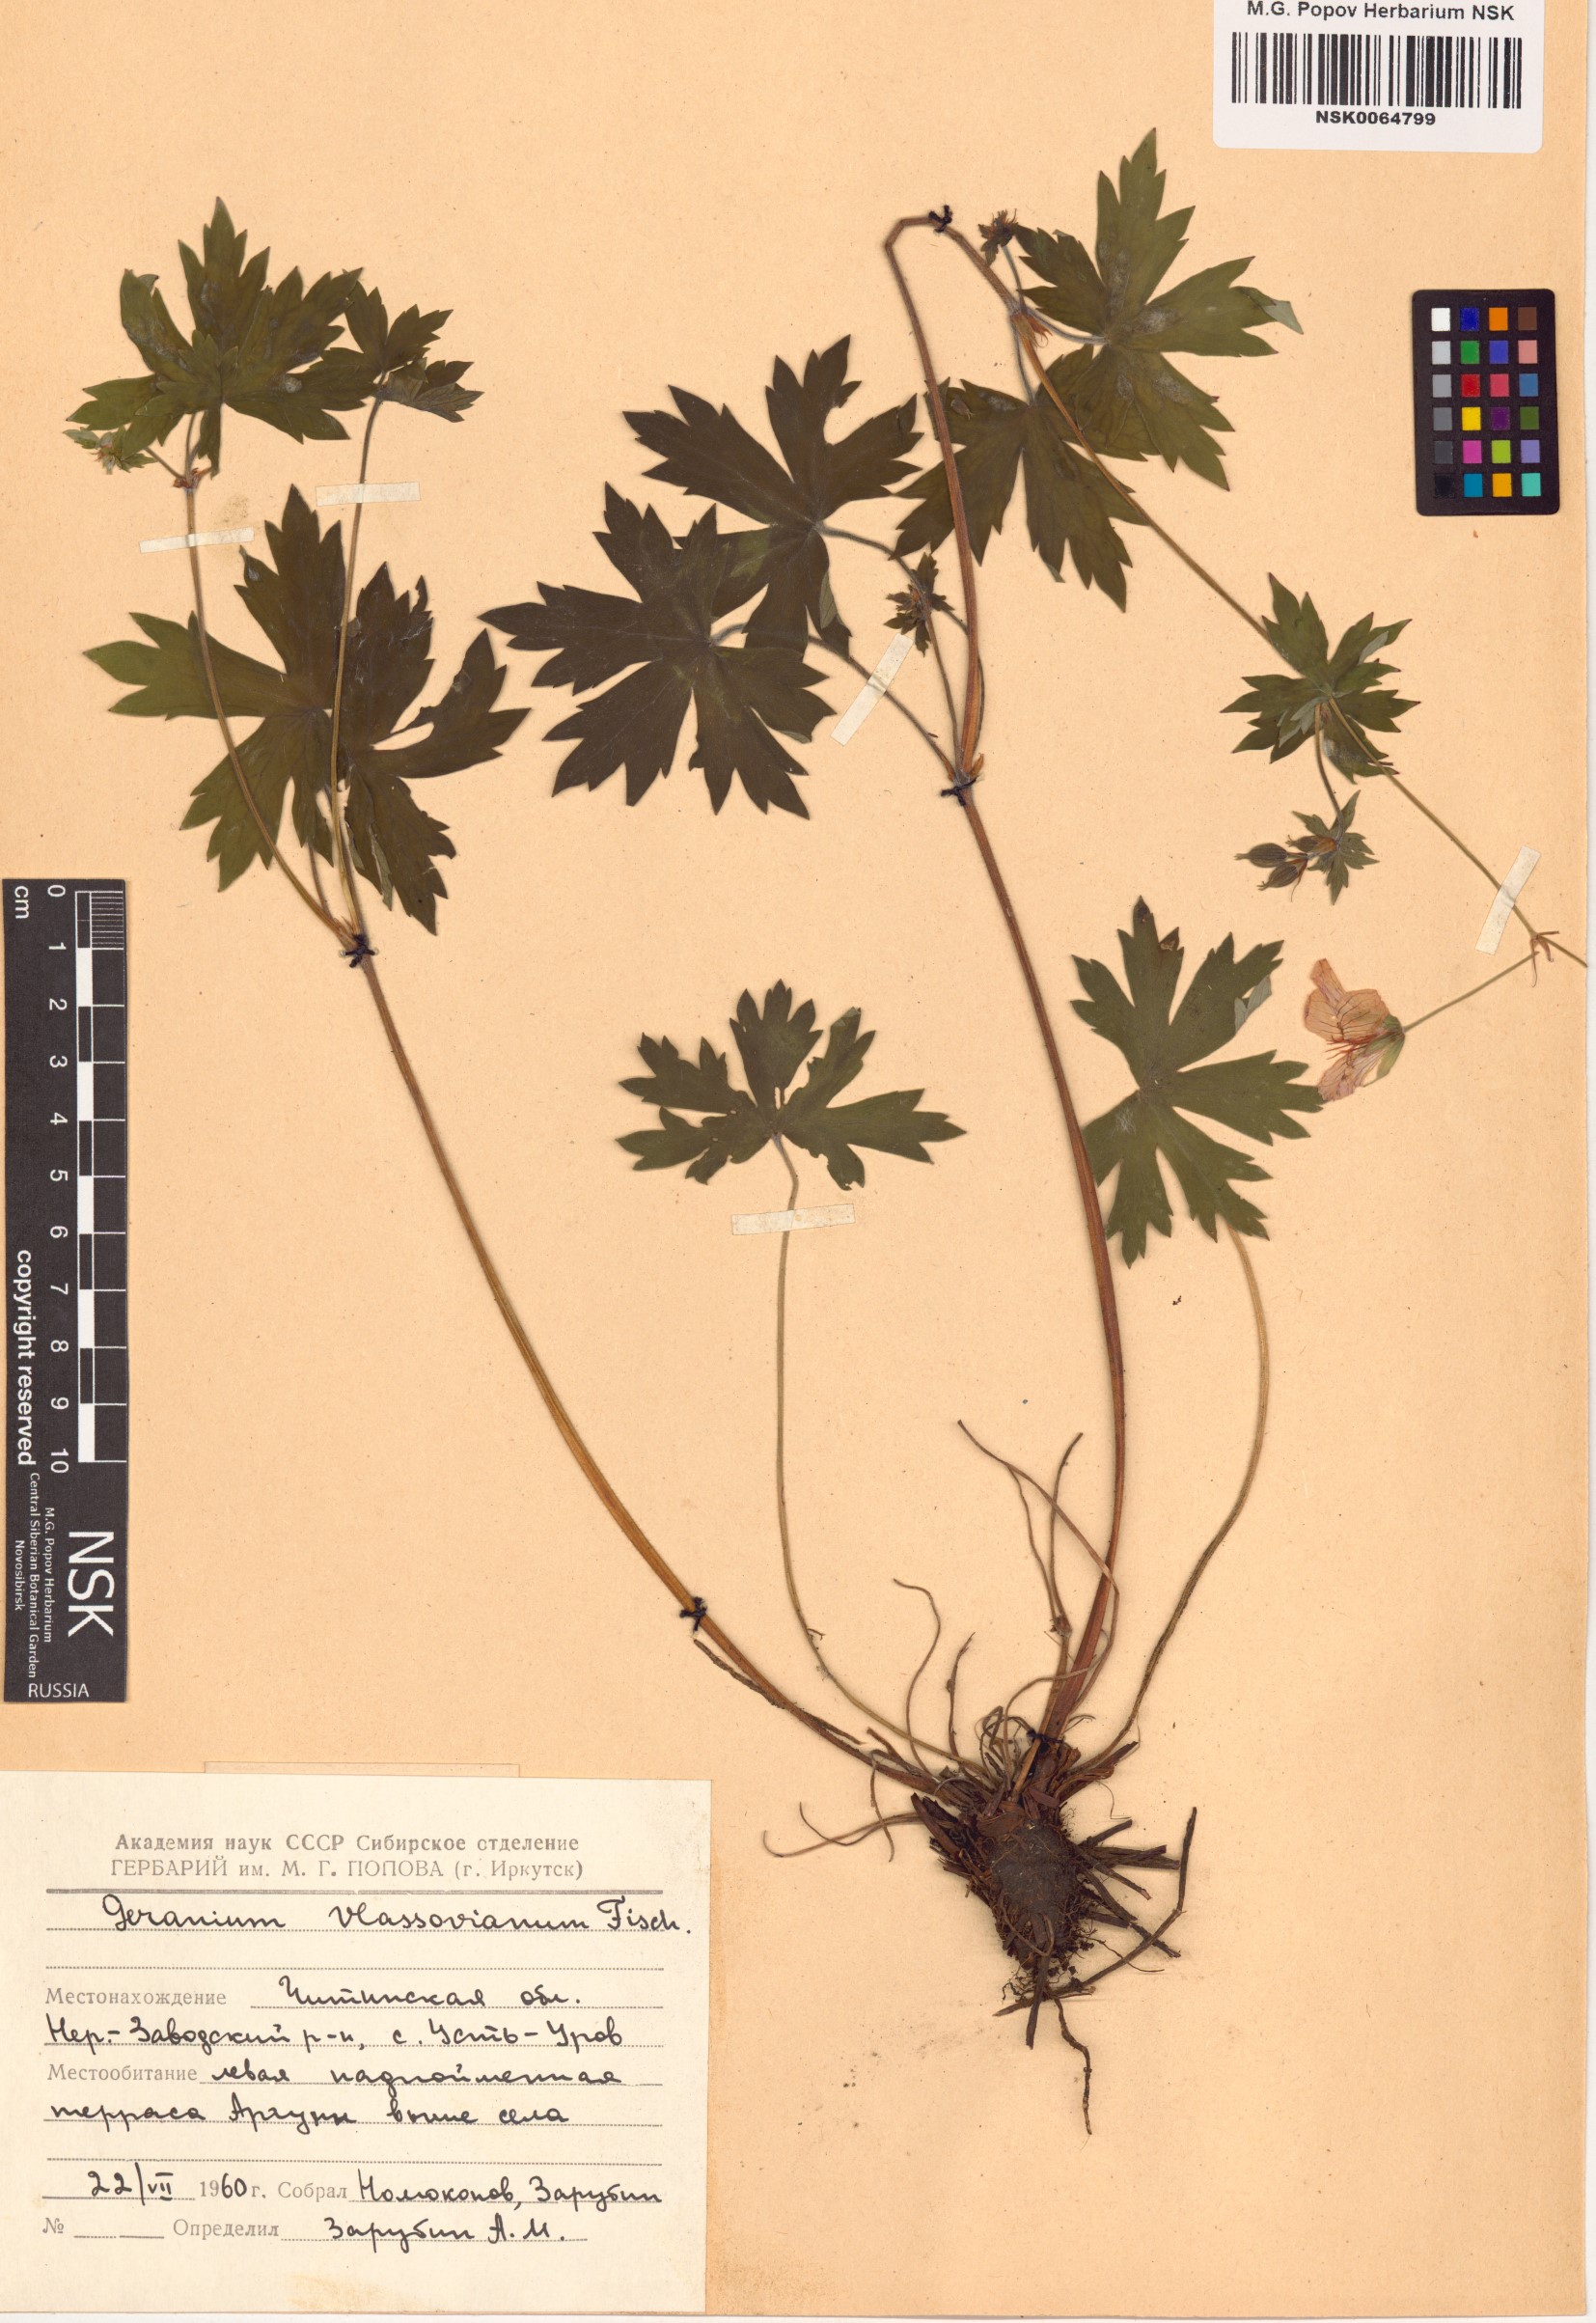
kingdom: Plantae
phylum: Tracheophyta
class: Magnoliopsida
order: Geraniales
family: Geraniaceae
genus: Geranium
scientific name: Geranium wlassovianum
